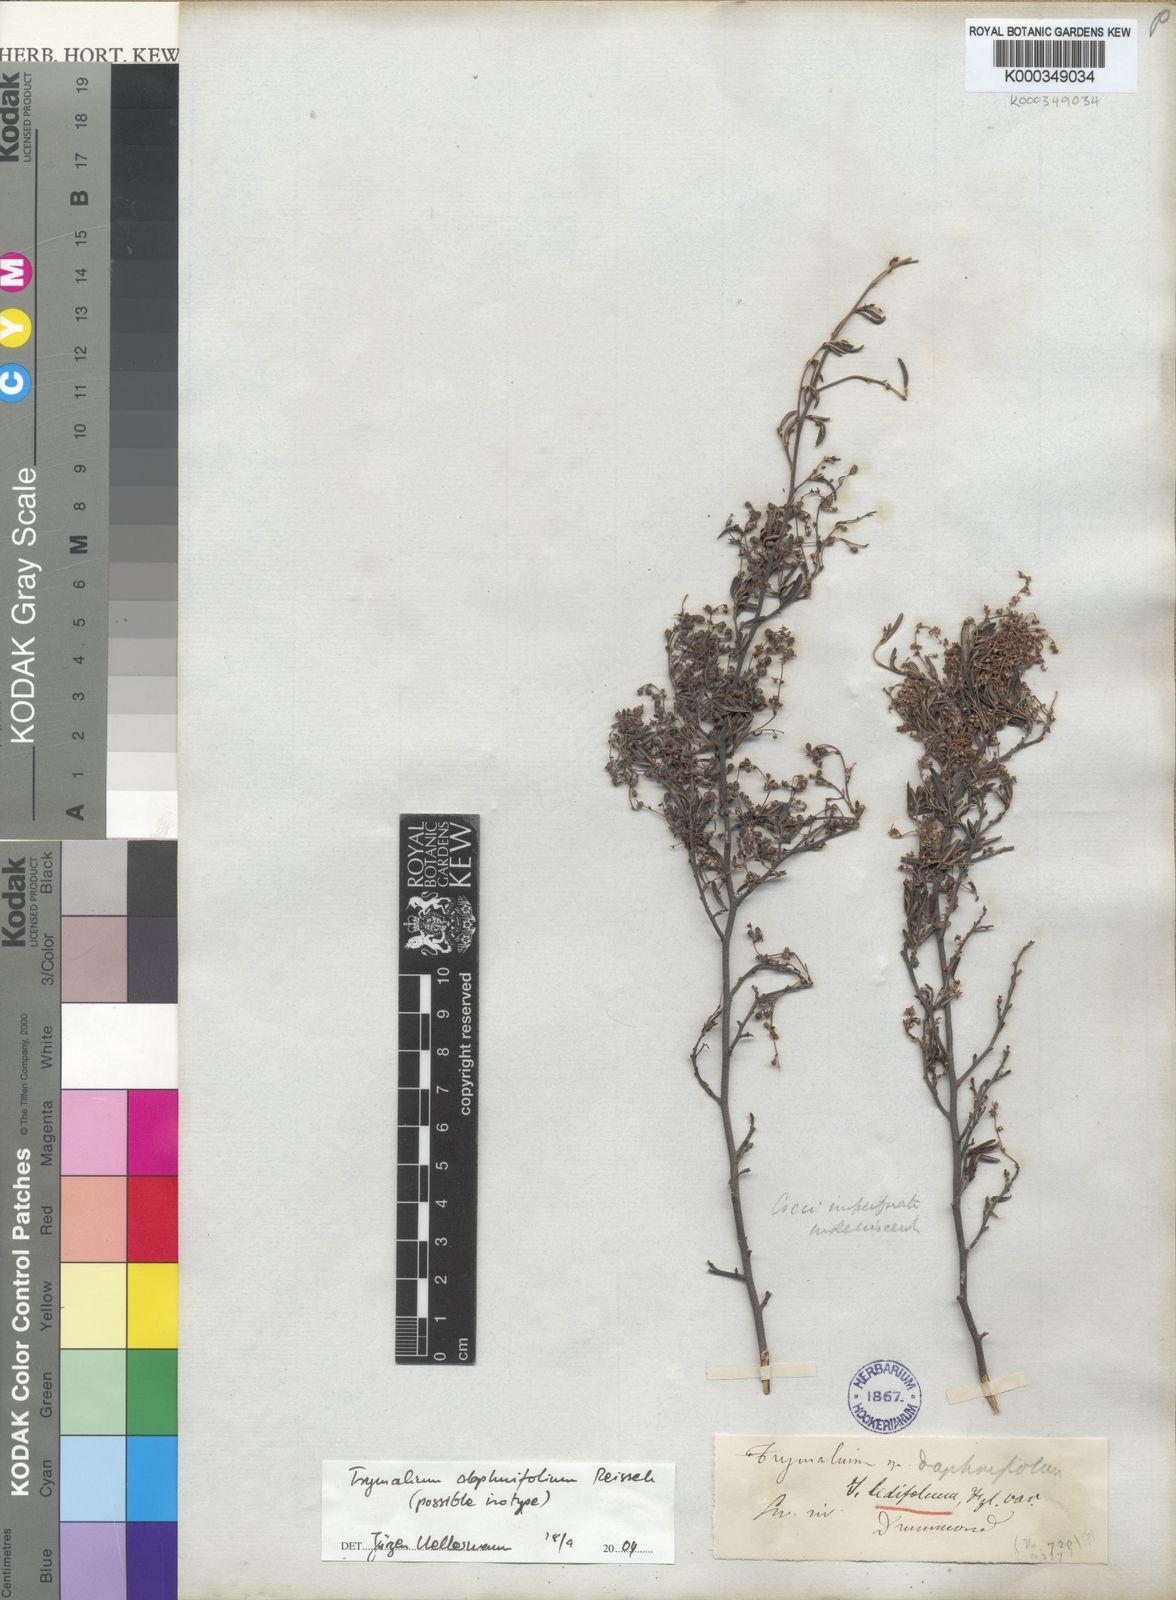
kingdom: Plantae
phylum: Tracheophyta
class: Magnoliopsida
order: Rosales
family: Rhamnaceae
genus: Polianthion
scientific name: Polianthion wichurae
